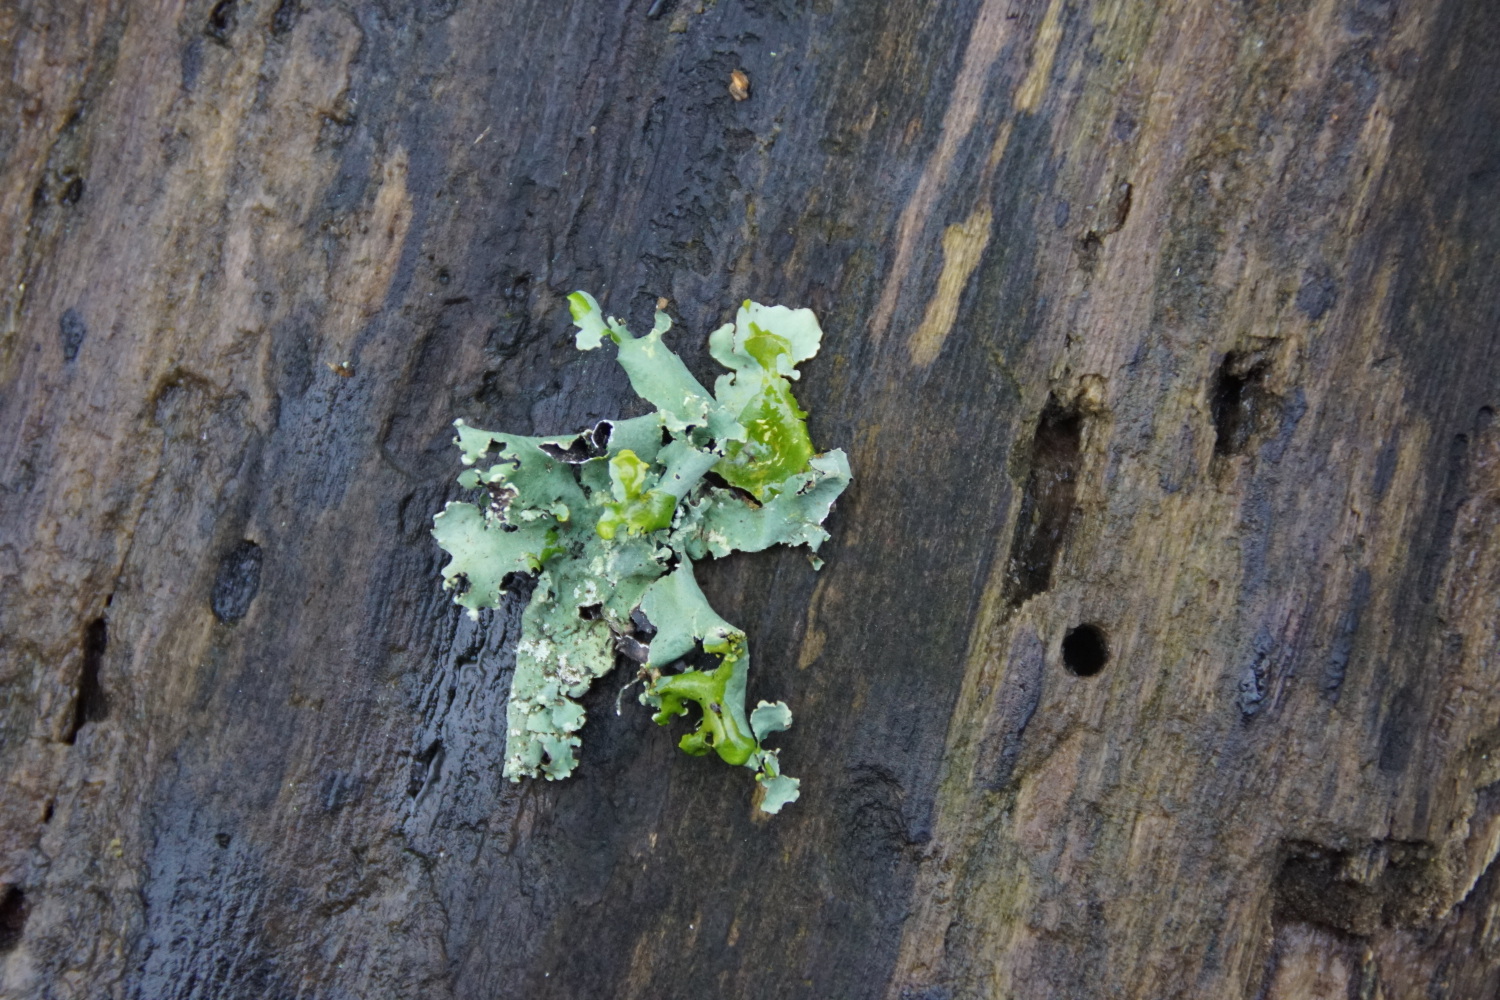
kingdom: Fungi
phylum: Ascomycota
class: Lecanoromycetes
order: Lecanorales
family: Parmeliaceae
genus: Parmotrema
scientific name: Parmotrema perlatum
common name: trådet skållav
